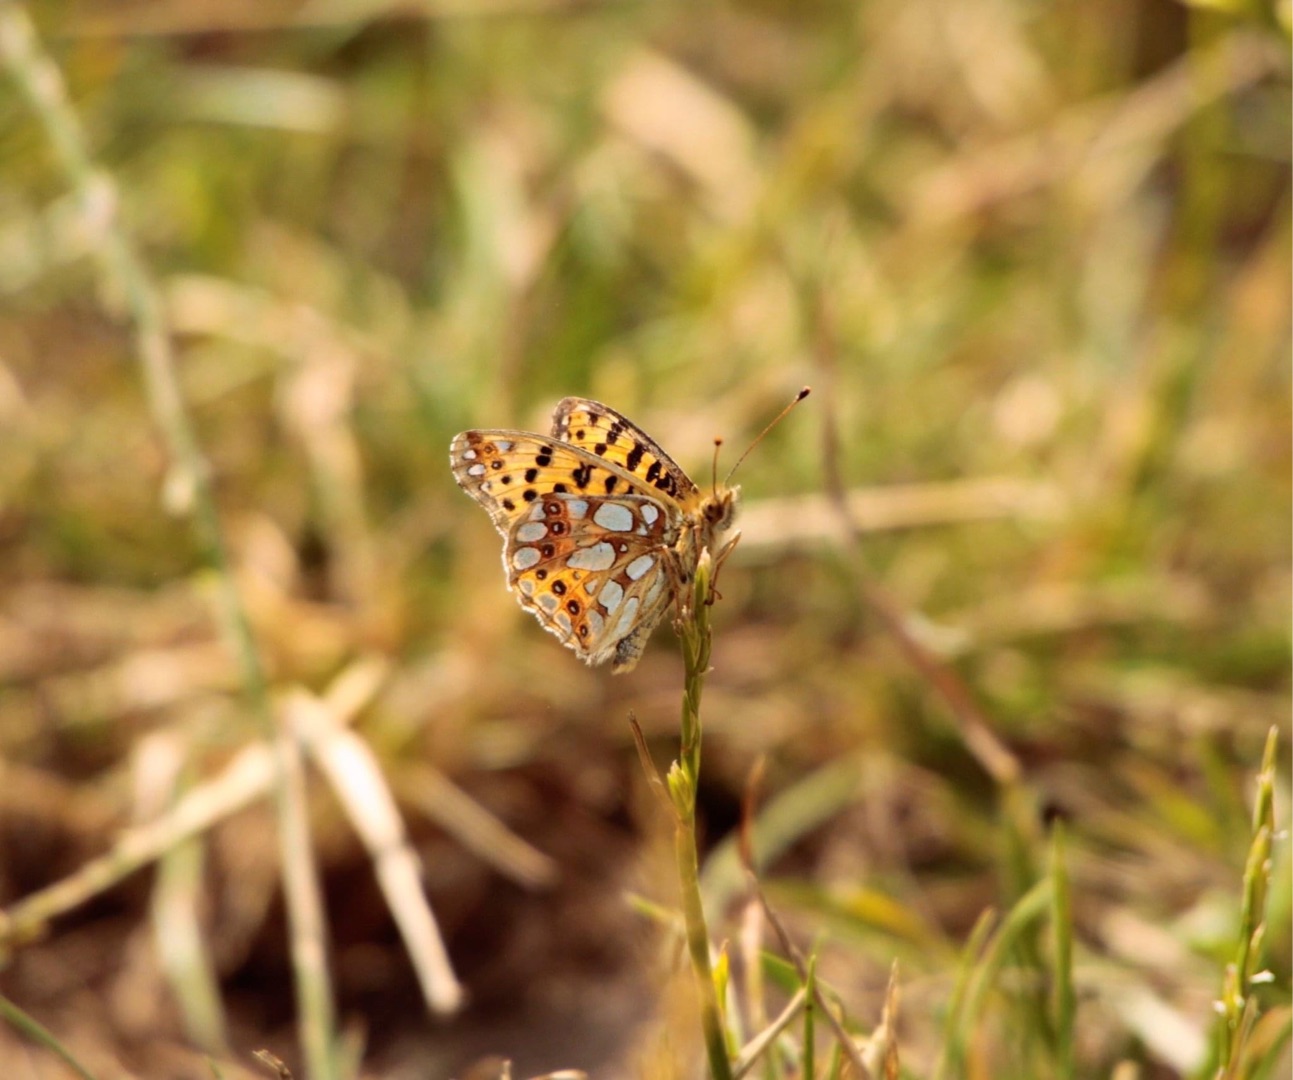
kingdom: Animalia
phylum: Arthropoda
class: Insecta
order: Lepidoptera
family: Nymphalidae
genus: Issoria
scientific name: Issoria lathonia
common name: Storplettet perlemorsommerfugl
